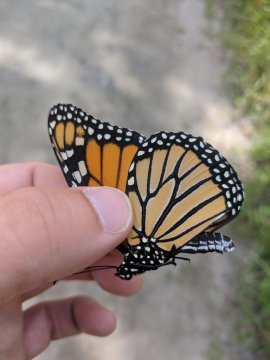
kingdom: Animalia
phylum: Arthropoda
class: Insecta
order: Lepidoptera
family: Nymphalidae
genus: Danaus
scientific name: Danaus plexippus
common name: Monarch
